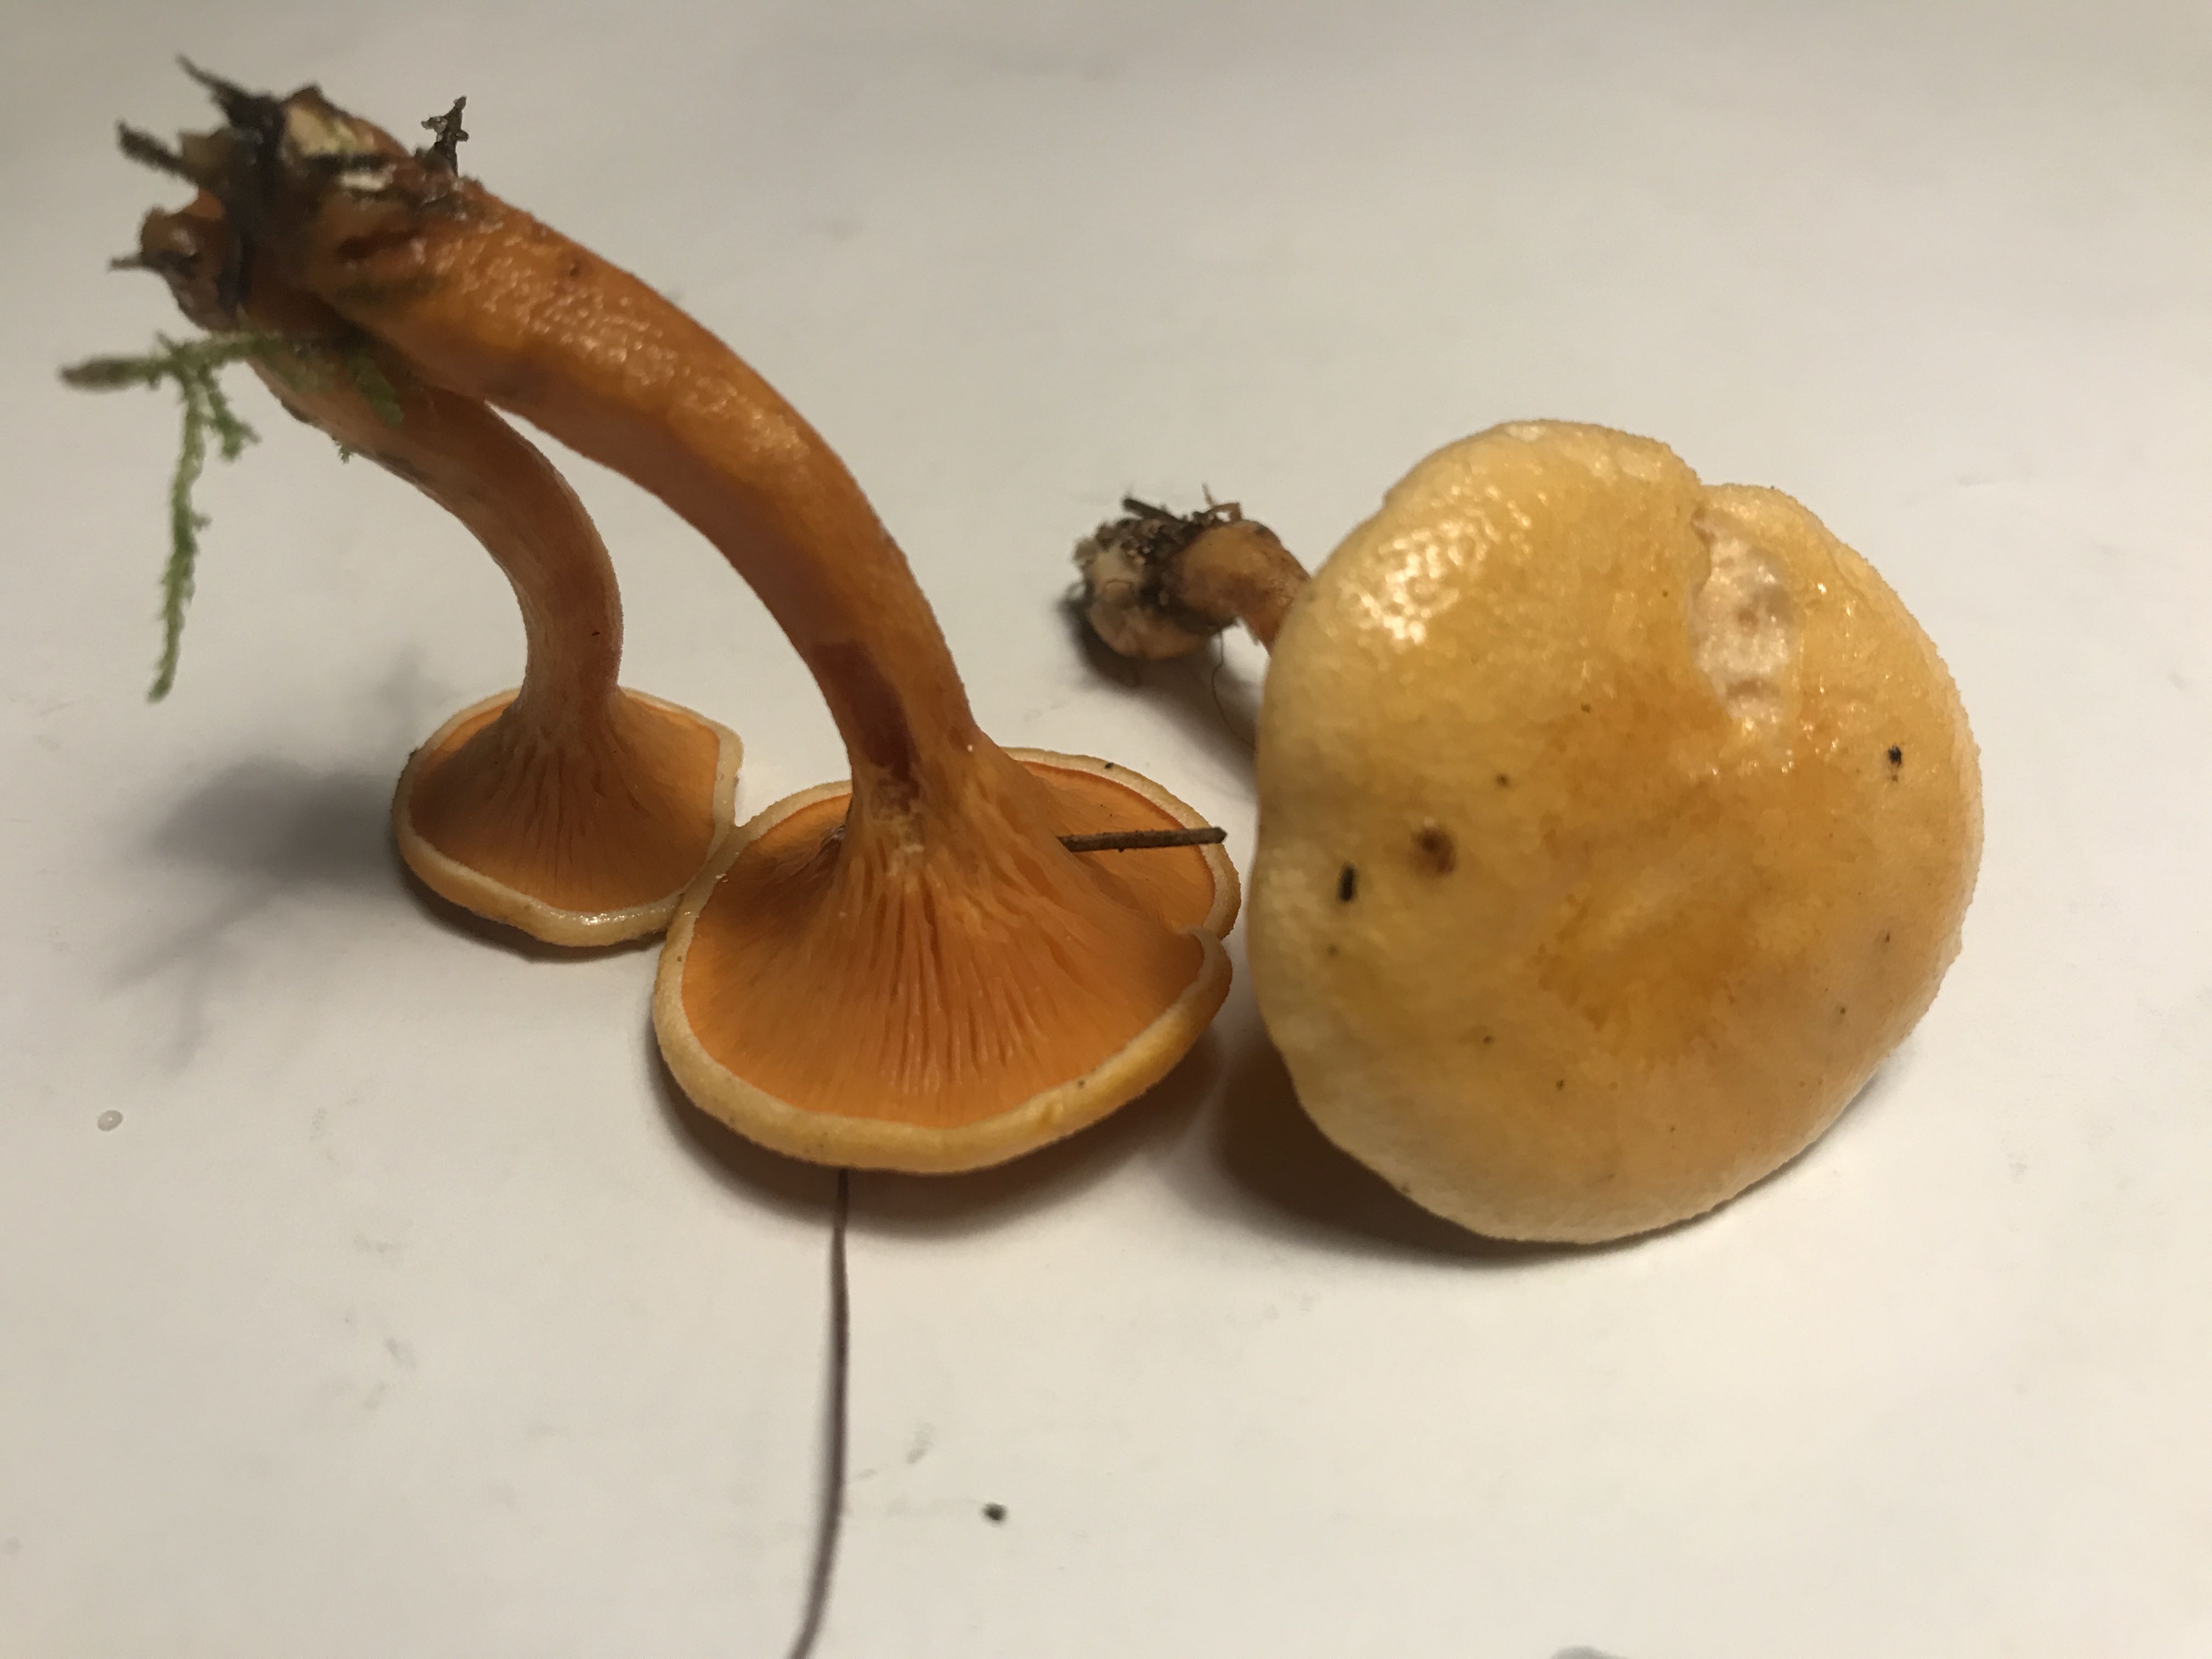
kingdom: Fungi
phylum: Basidiomycota
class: Agaricomycetes
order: Boletales
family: Hygrophoropsidaceae
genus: Hygrophoropsis
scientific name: Hygrophoropsis aurantiaca
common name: almindelig orangekantarel
